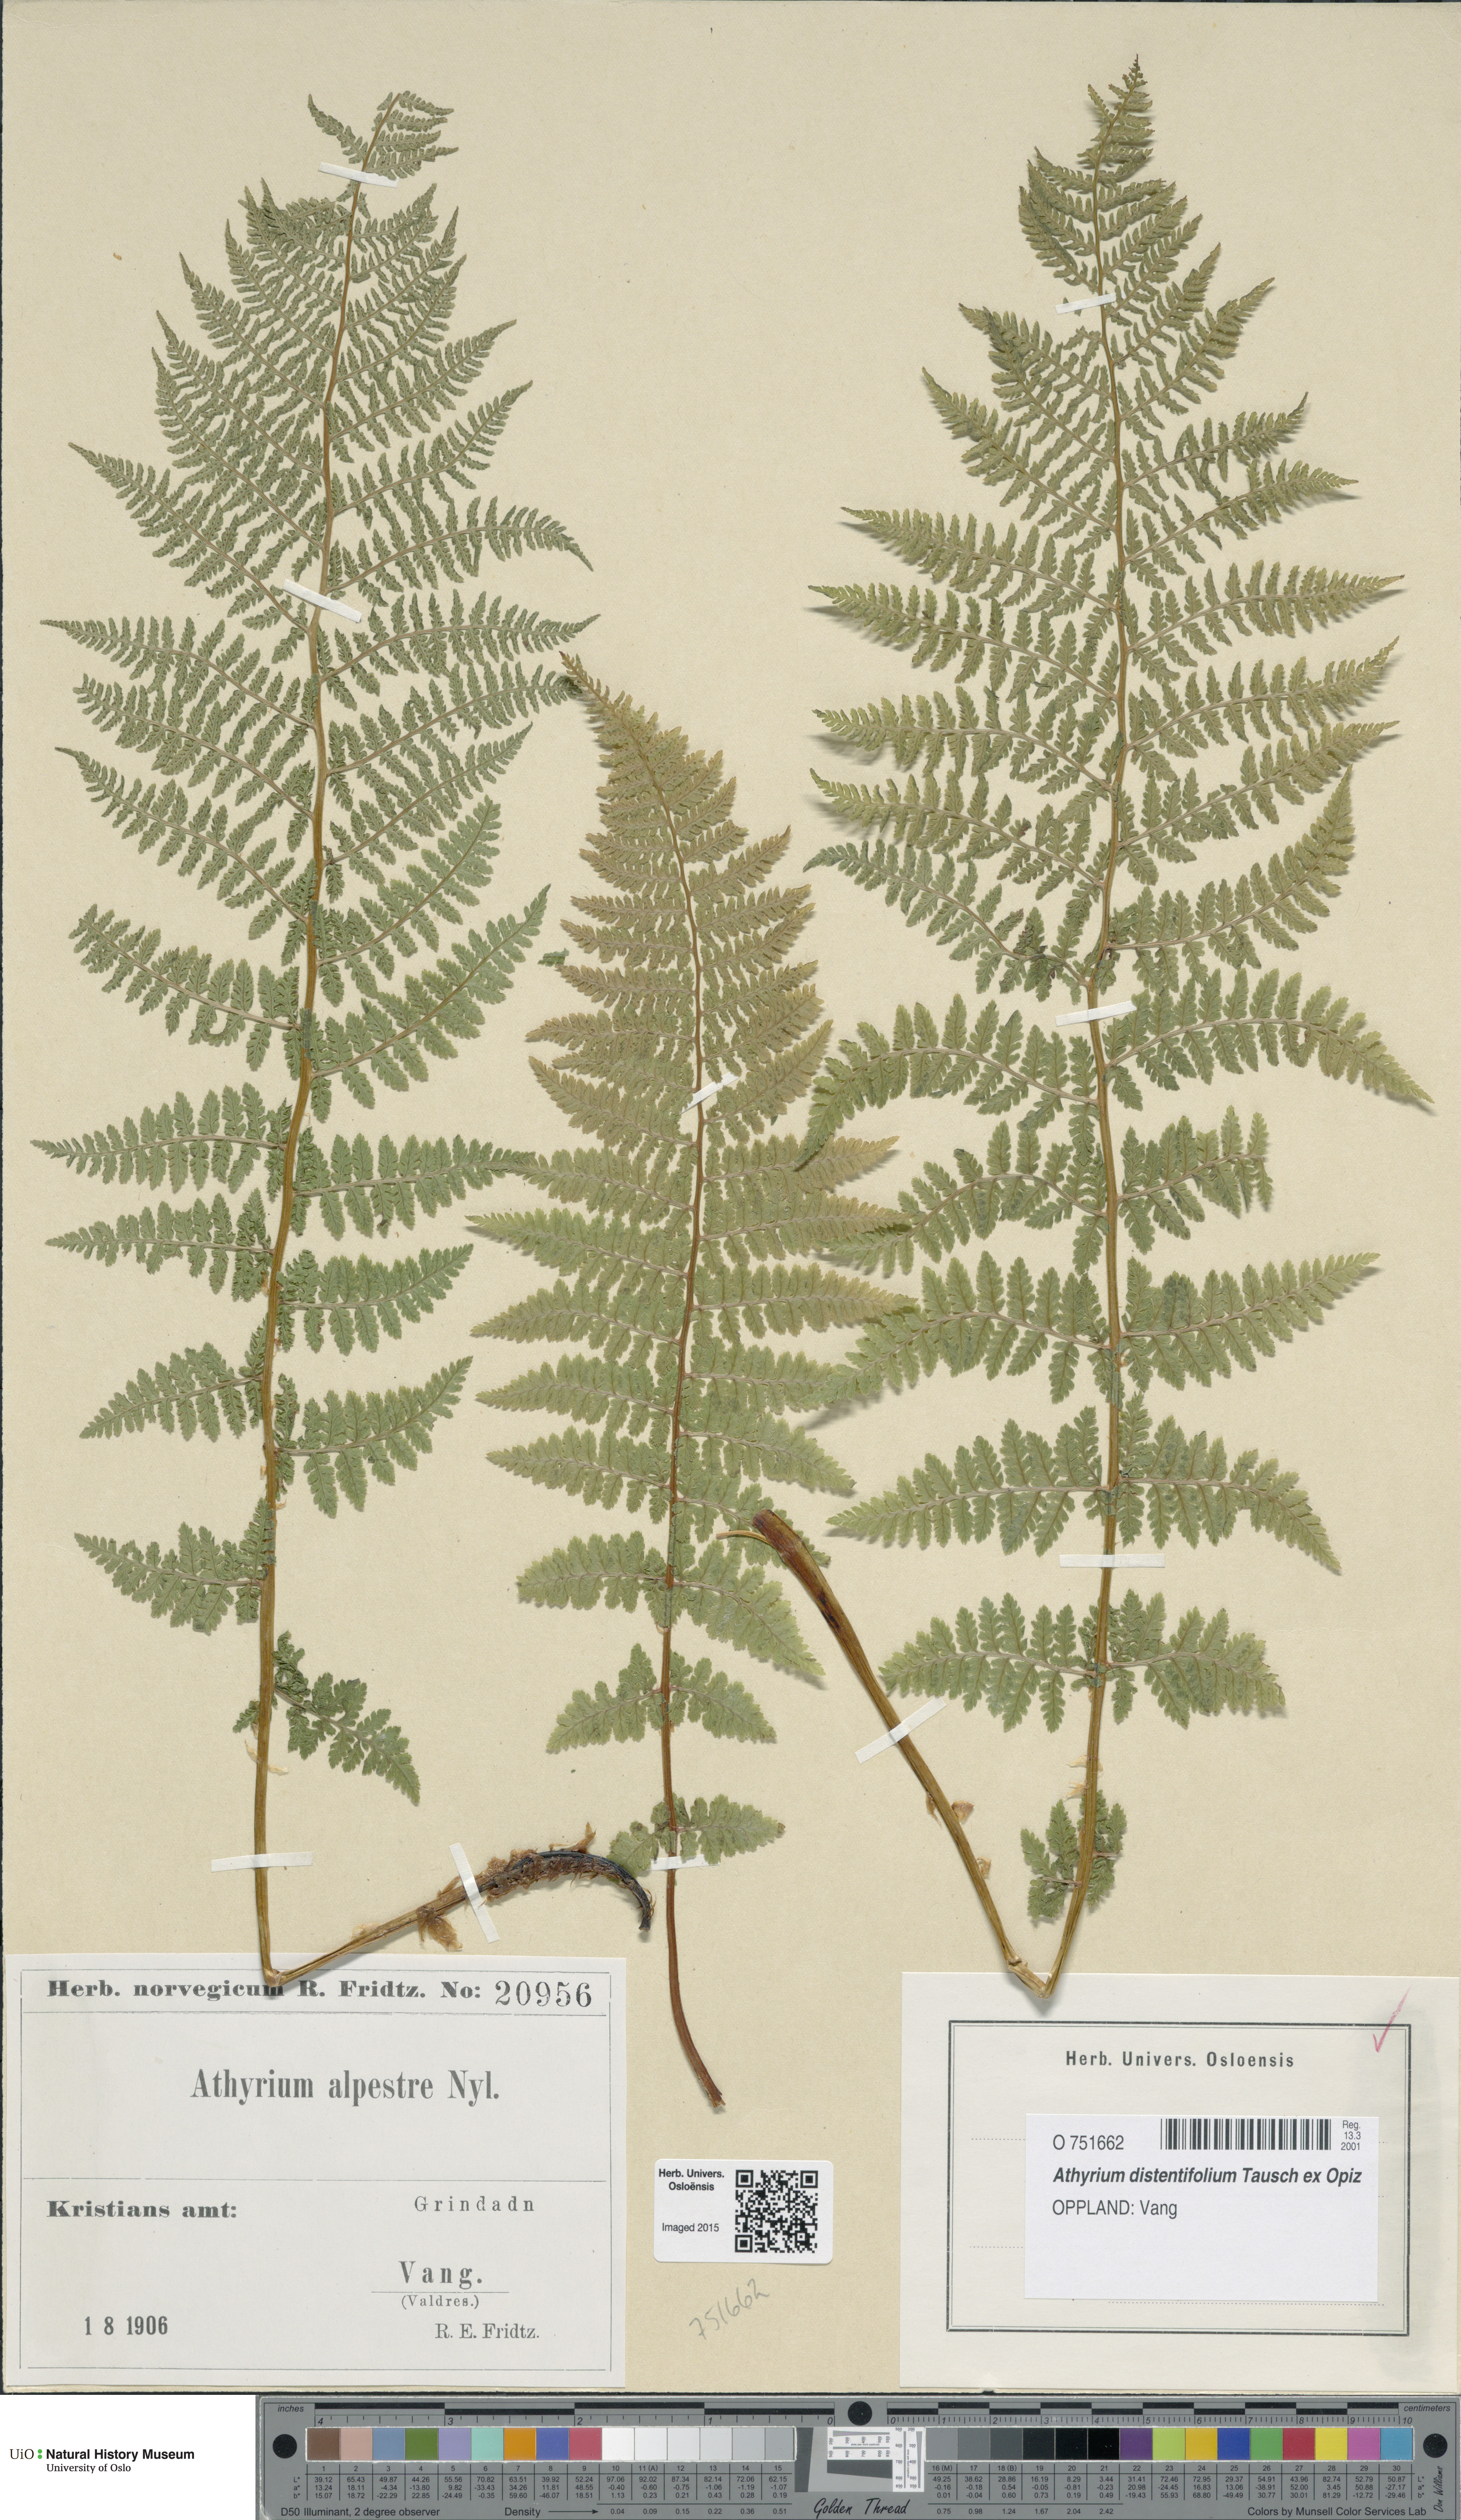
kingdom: Plantae
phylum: Tracheophyta
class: Polypodiopsida
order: Polypodiales
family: Athyriaceae
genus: Pseudathyrium
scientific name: Pseudathyrium alpestre
